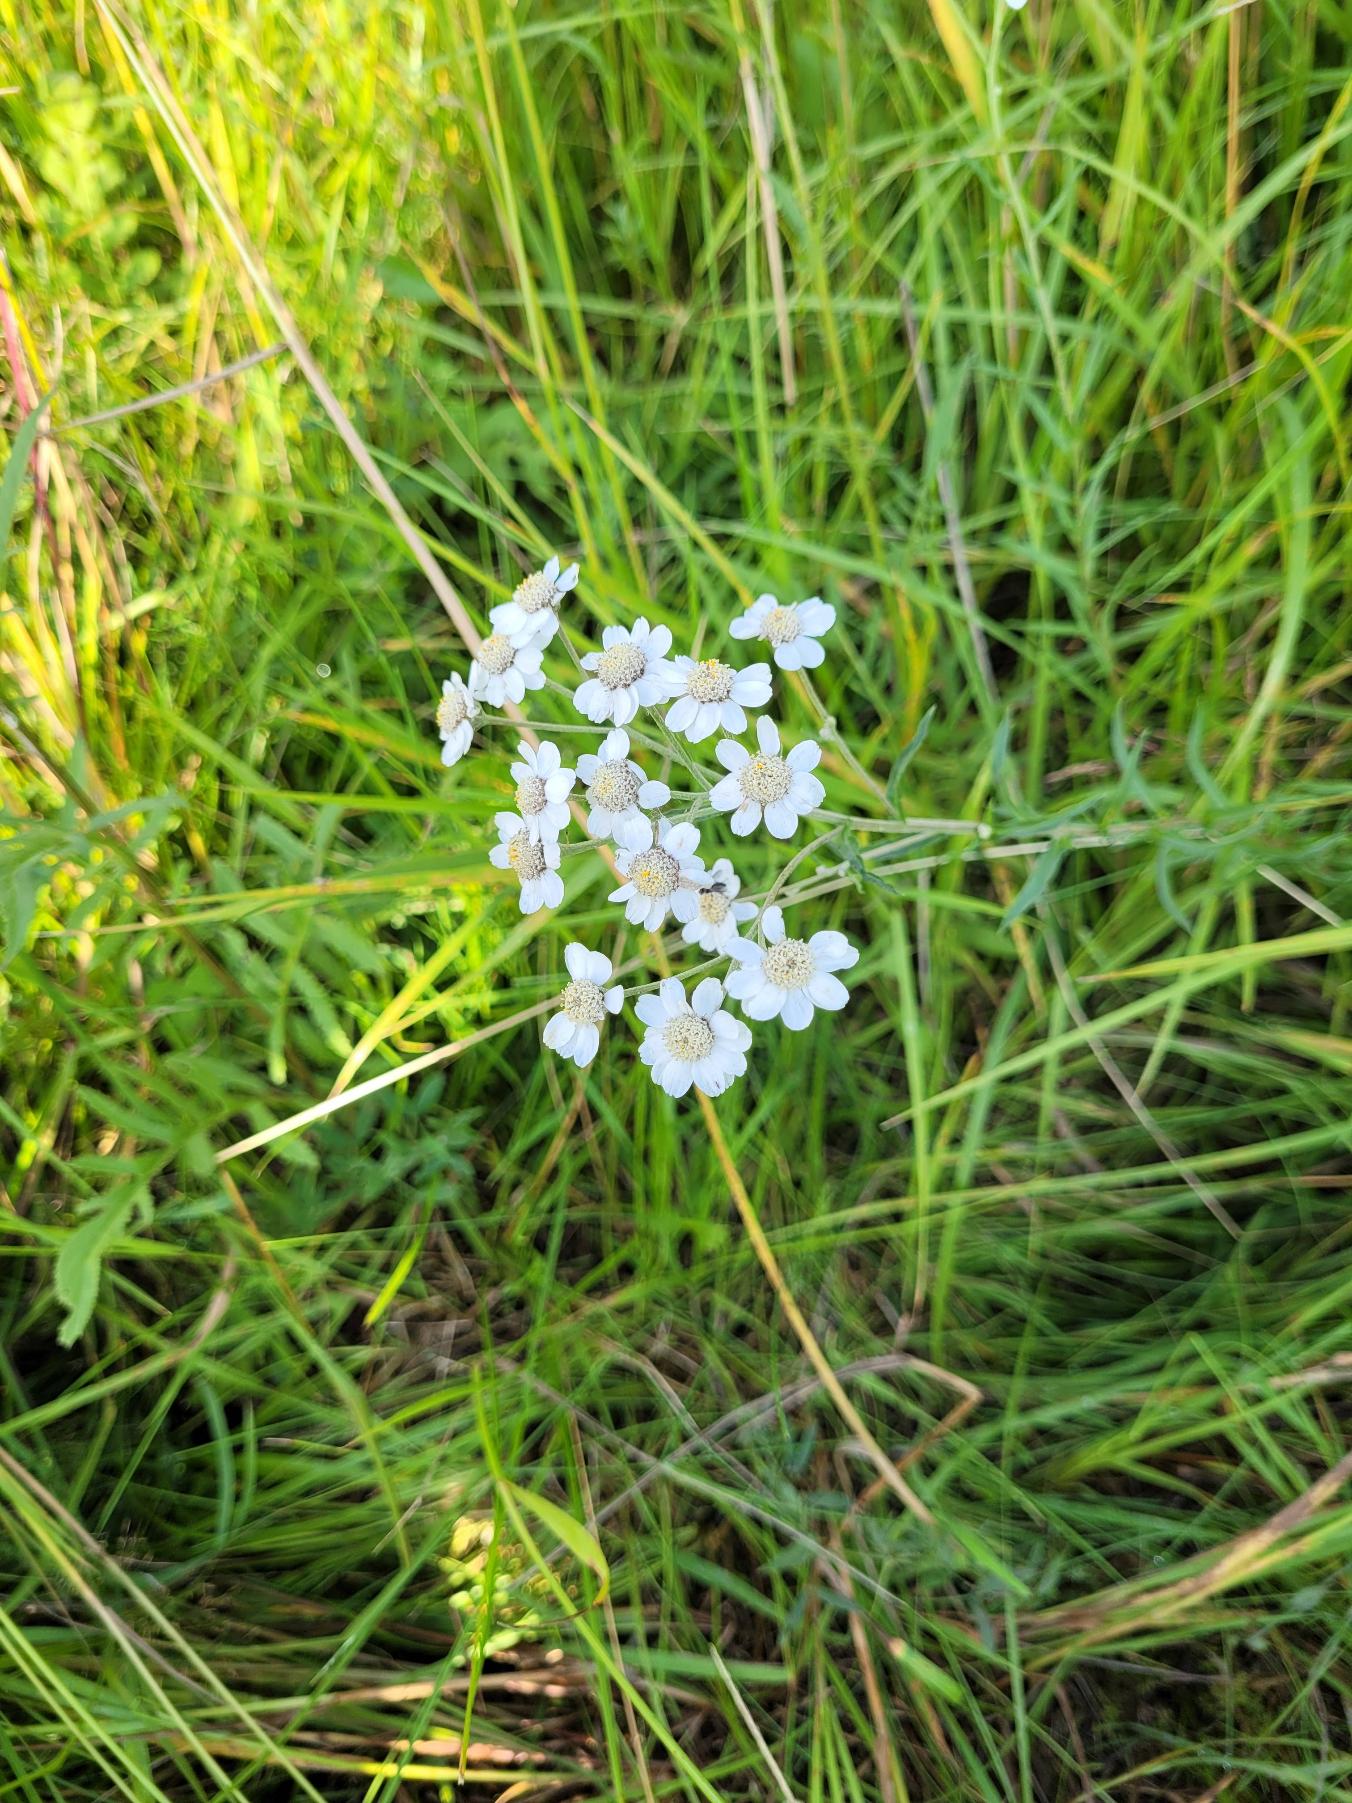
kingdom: Plantae
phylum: Tracheophyta
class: Magnoliopsida
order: Asterales
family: Asteraceae
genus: Achillea
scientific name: Achillea ptarmica
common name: Nyse-røllike
